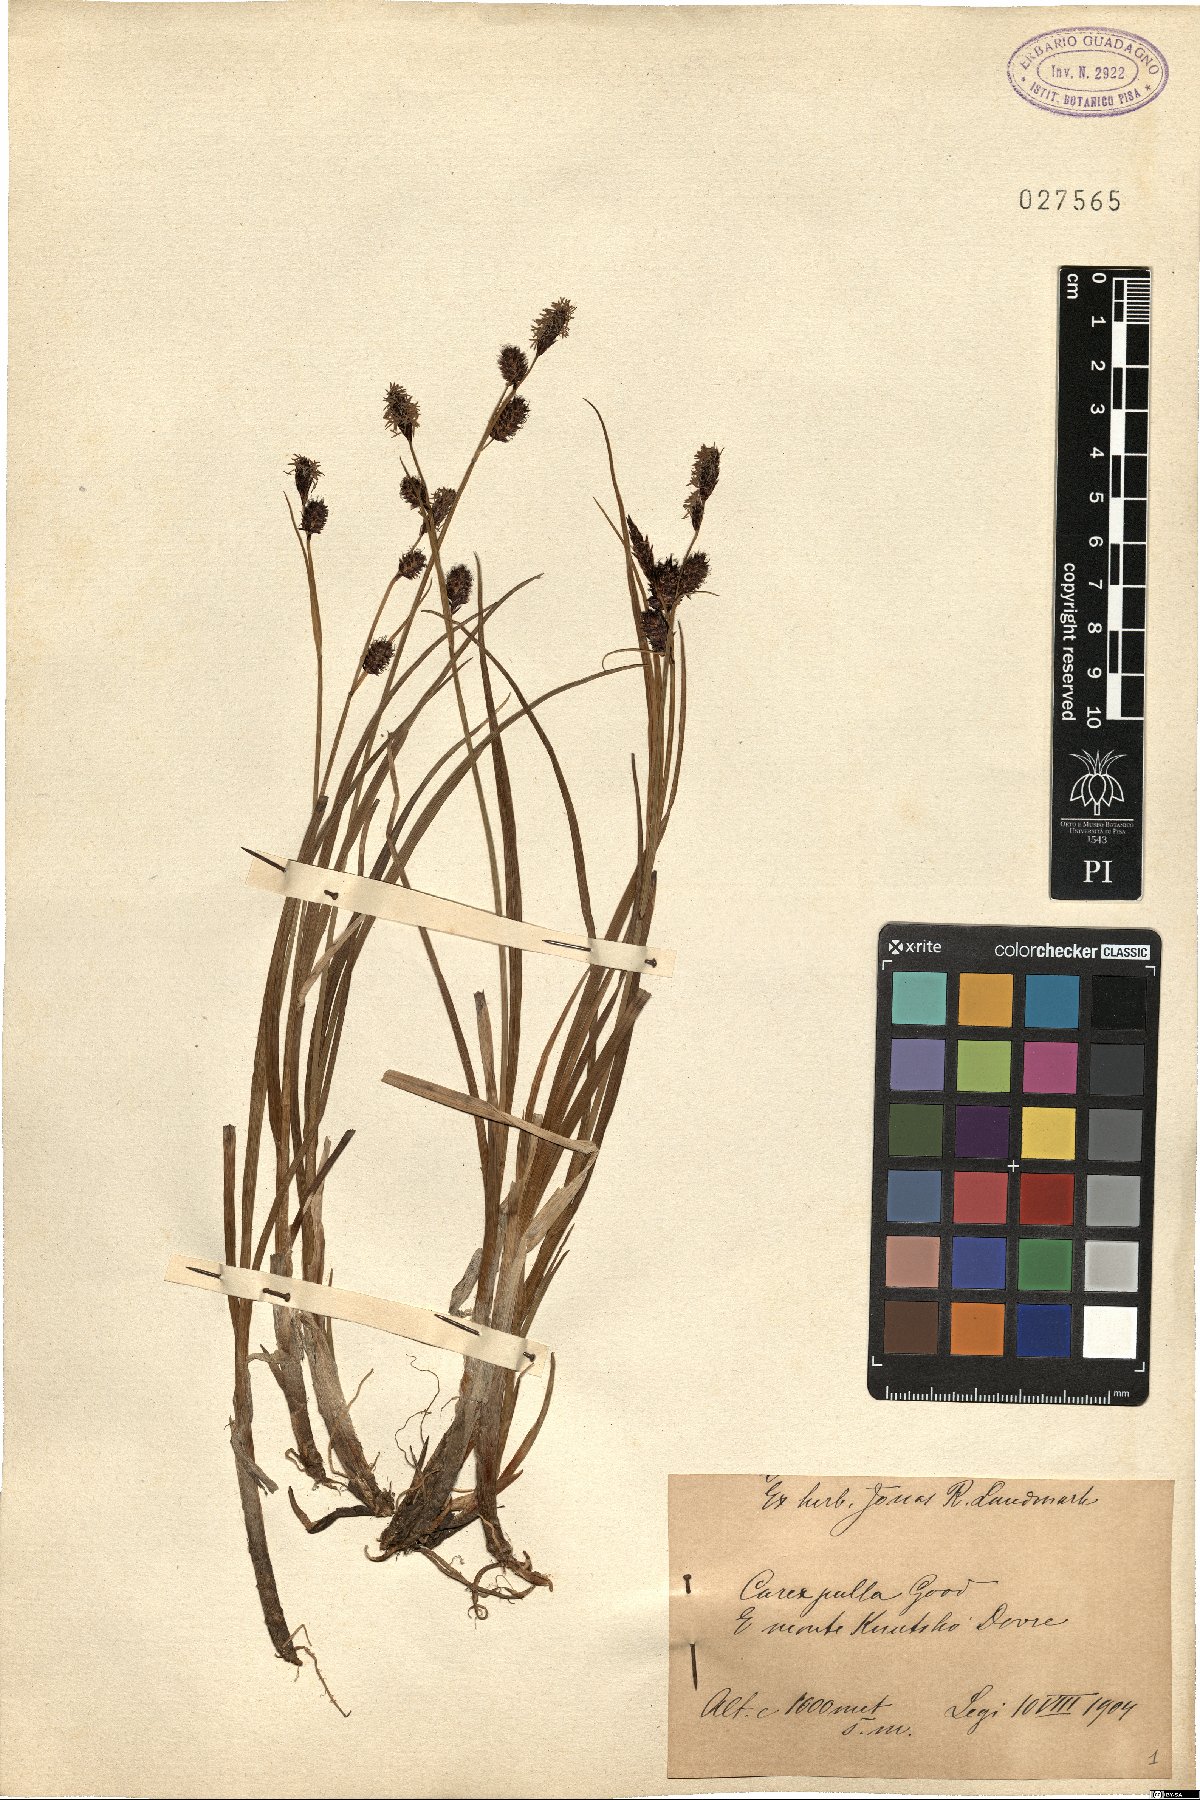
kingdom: Plantae
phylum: Tracheophyta
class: Liliopsida
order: Poales
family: Cyperaceae
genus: Carex
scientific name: Carex saxatilis
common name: Russet sedge
